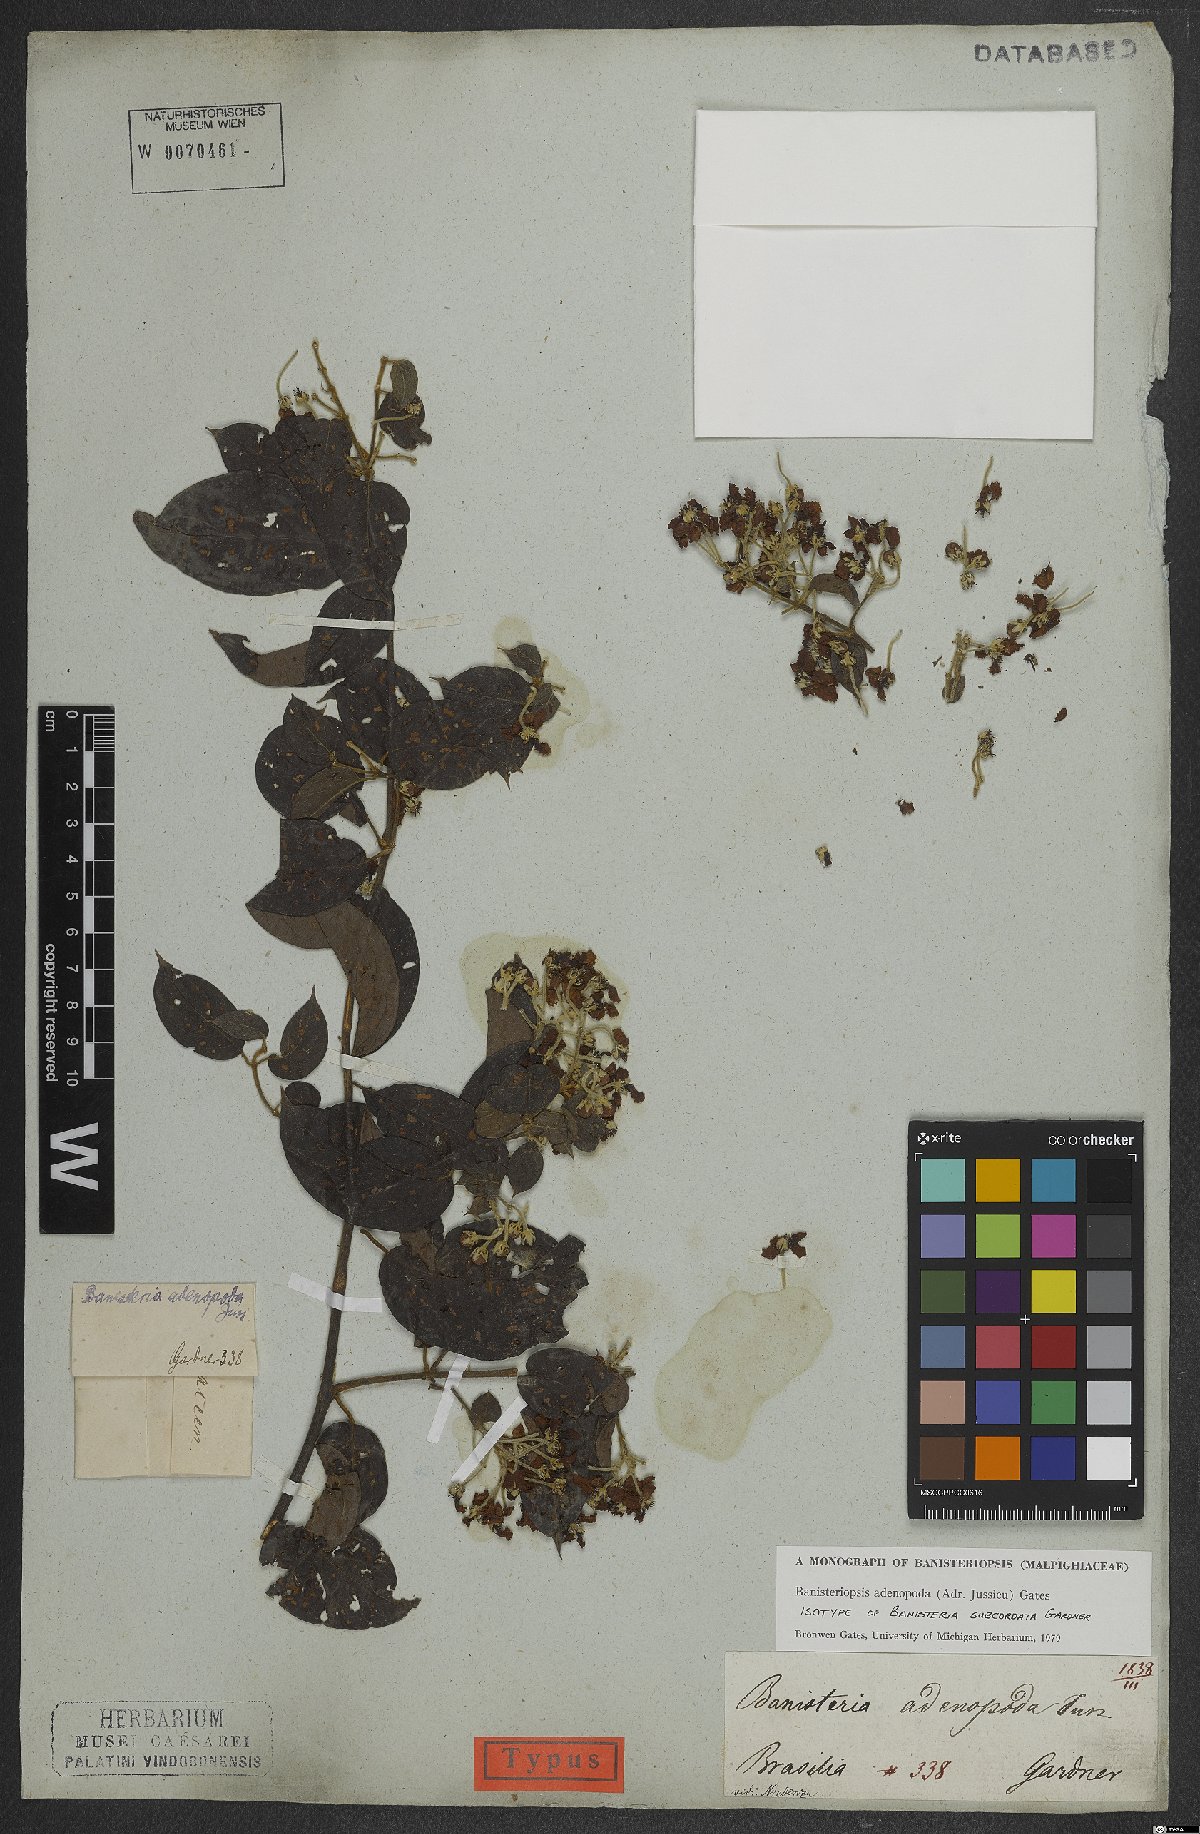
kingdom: Plantae
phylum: Tracheophyta
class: Magnoliopsida
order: Malpighiales
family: Malpighiaceae
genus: Banisteriopsis
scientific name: Banisteriopsis adenopoda
